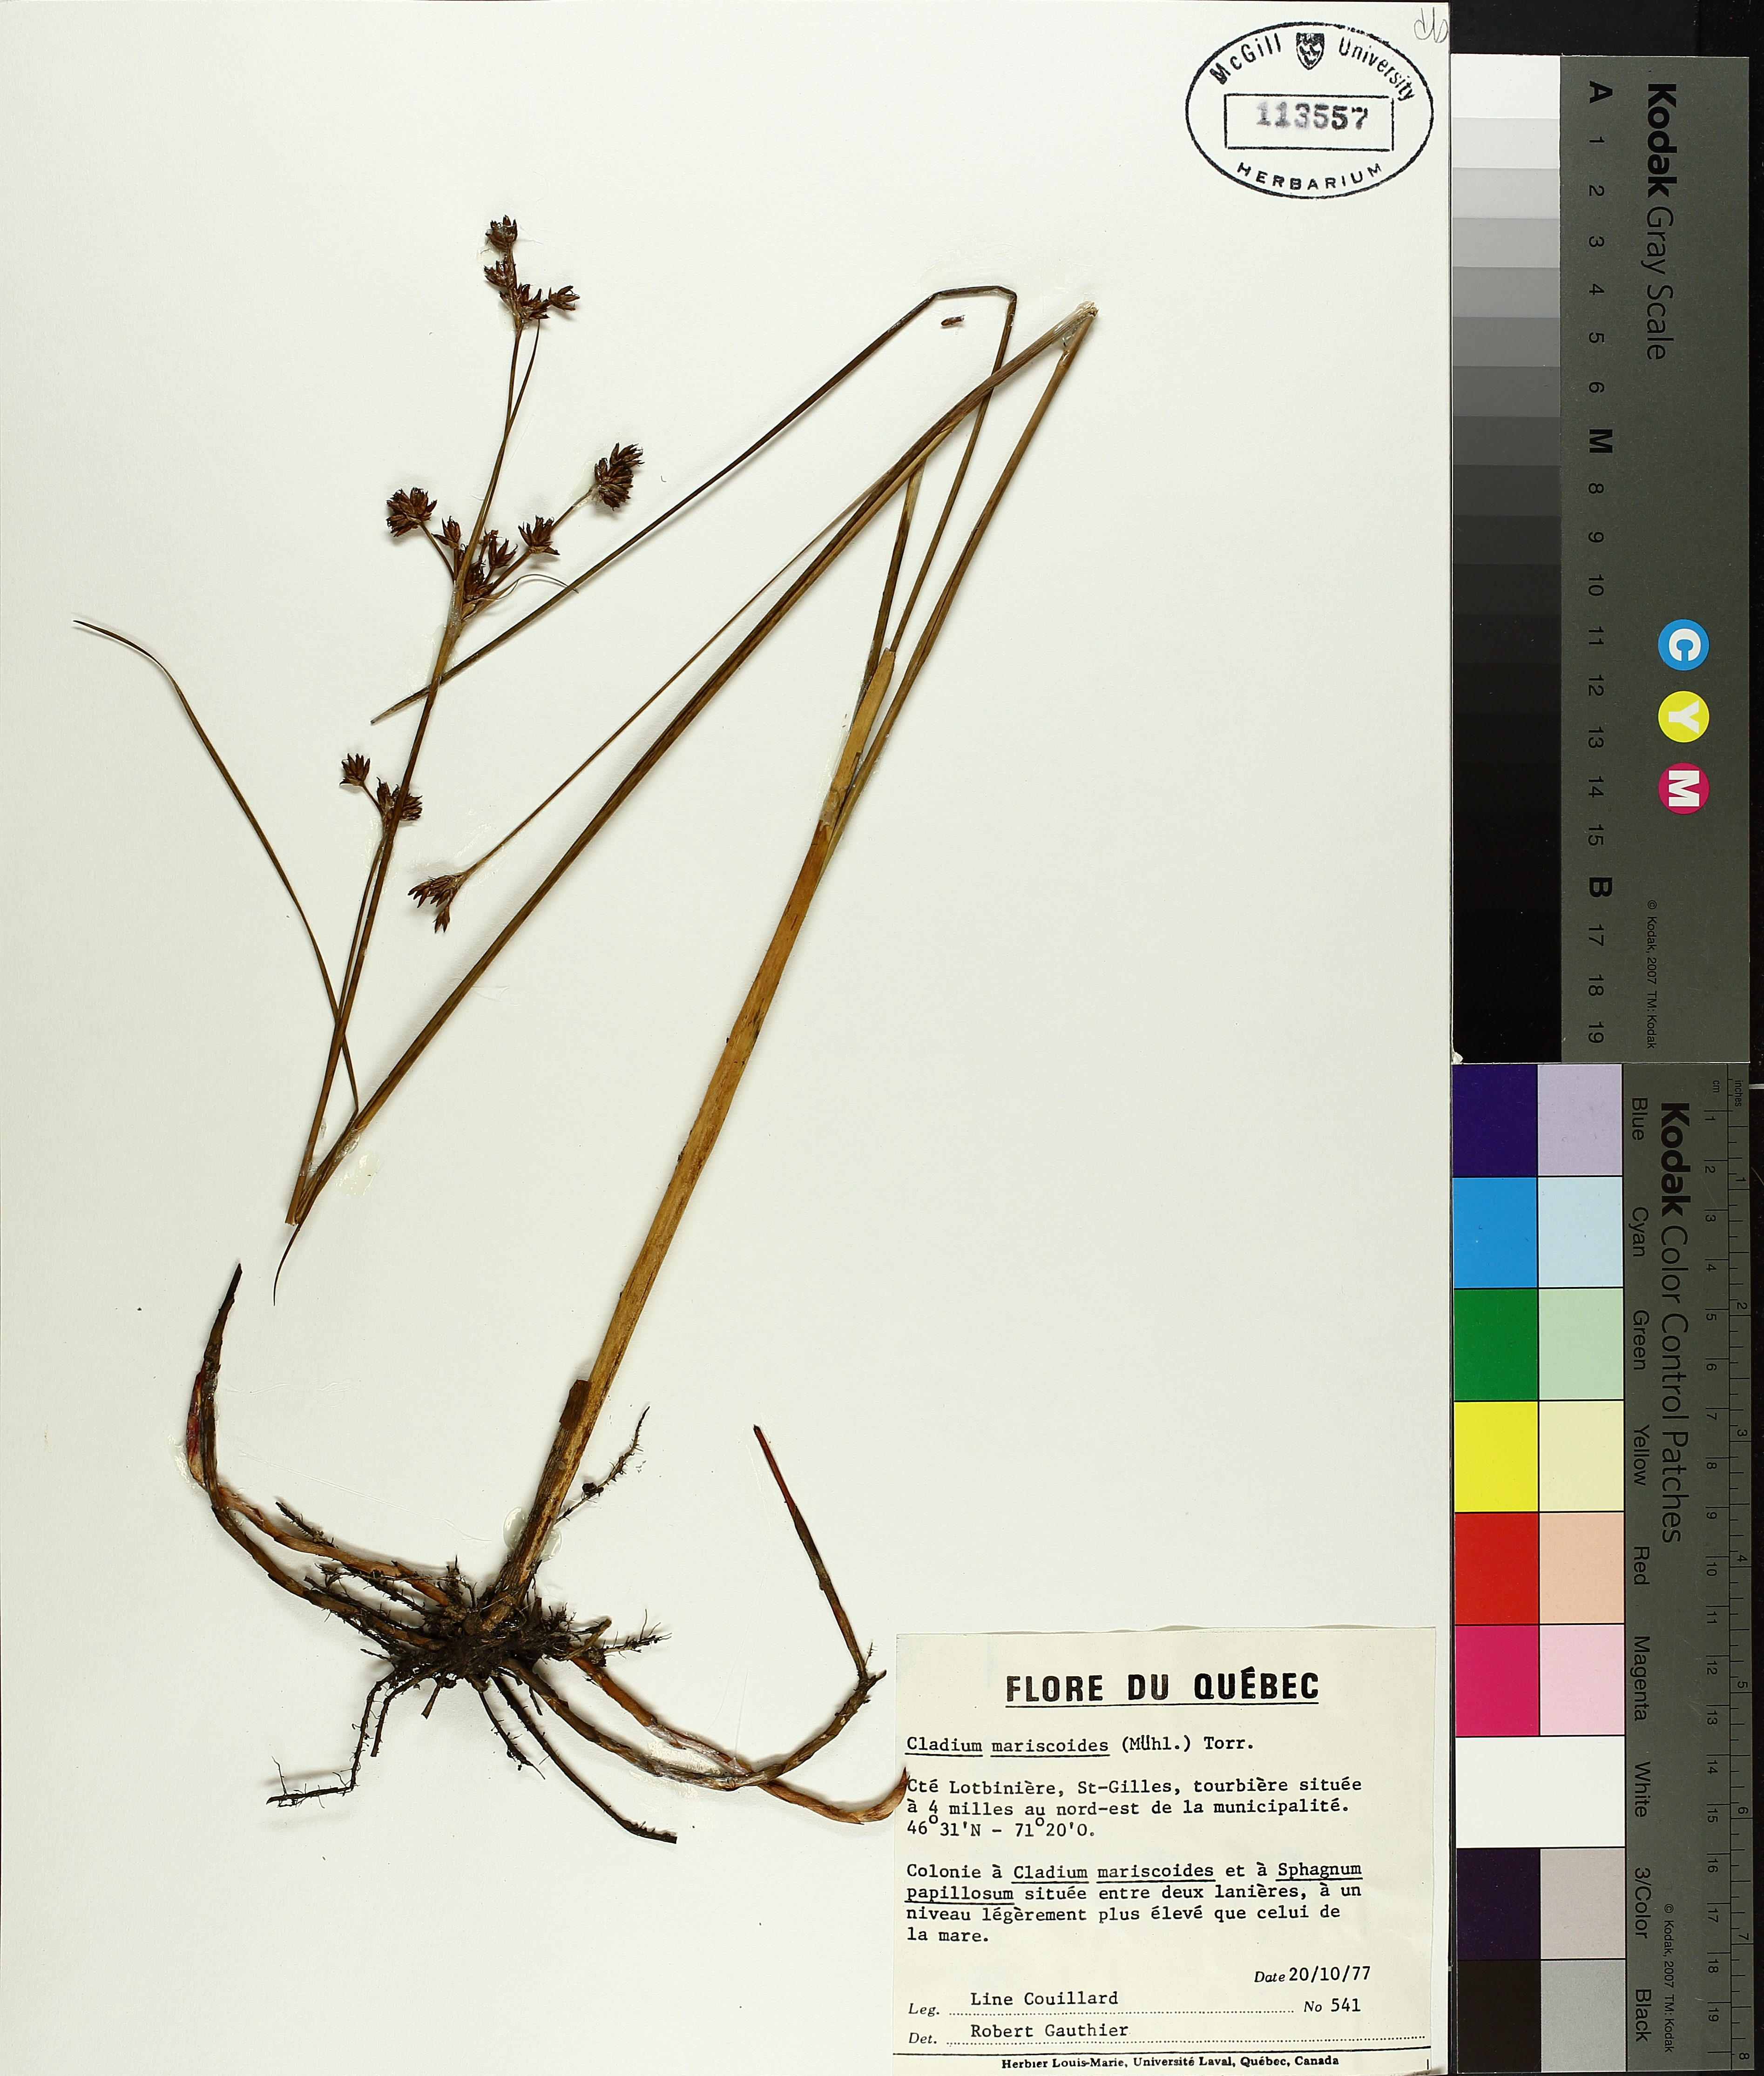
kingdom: Plantae
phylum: Tracheophyta
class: Liliopsida
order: Poales
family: Cyperaceae
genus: Cladium
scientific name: Cladium mariscoides
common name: Smooth sawgrass
